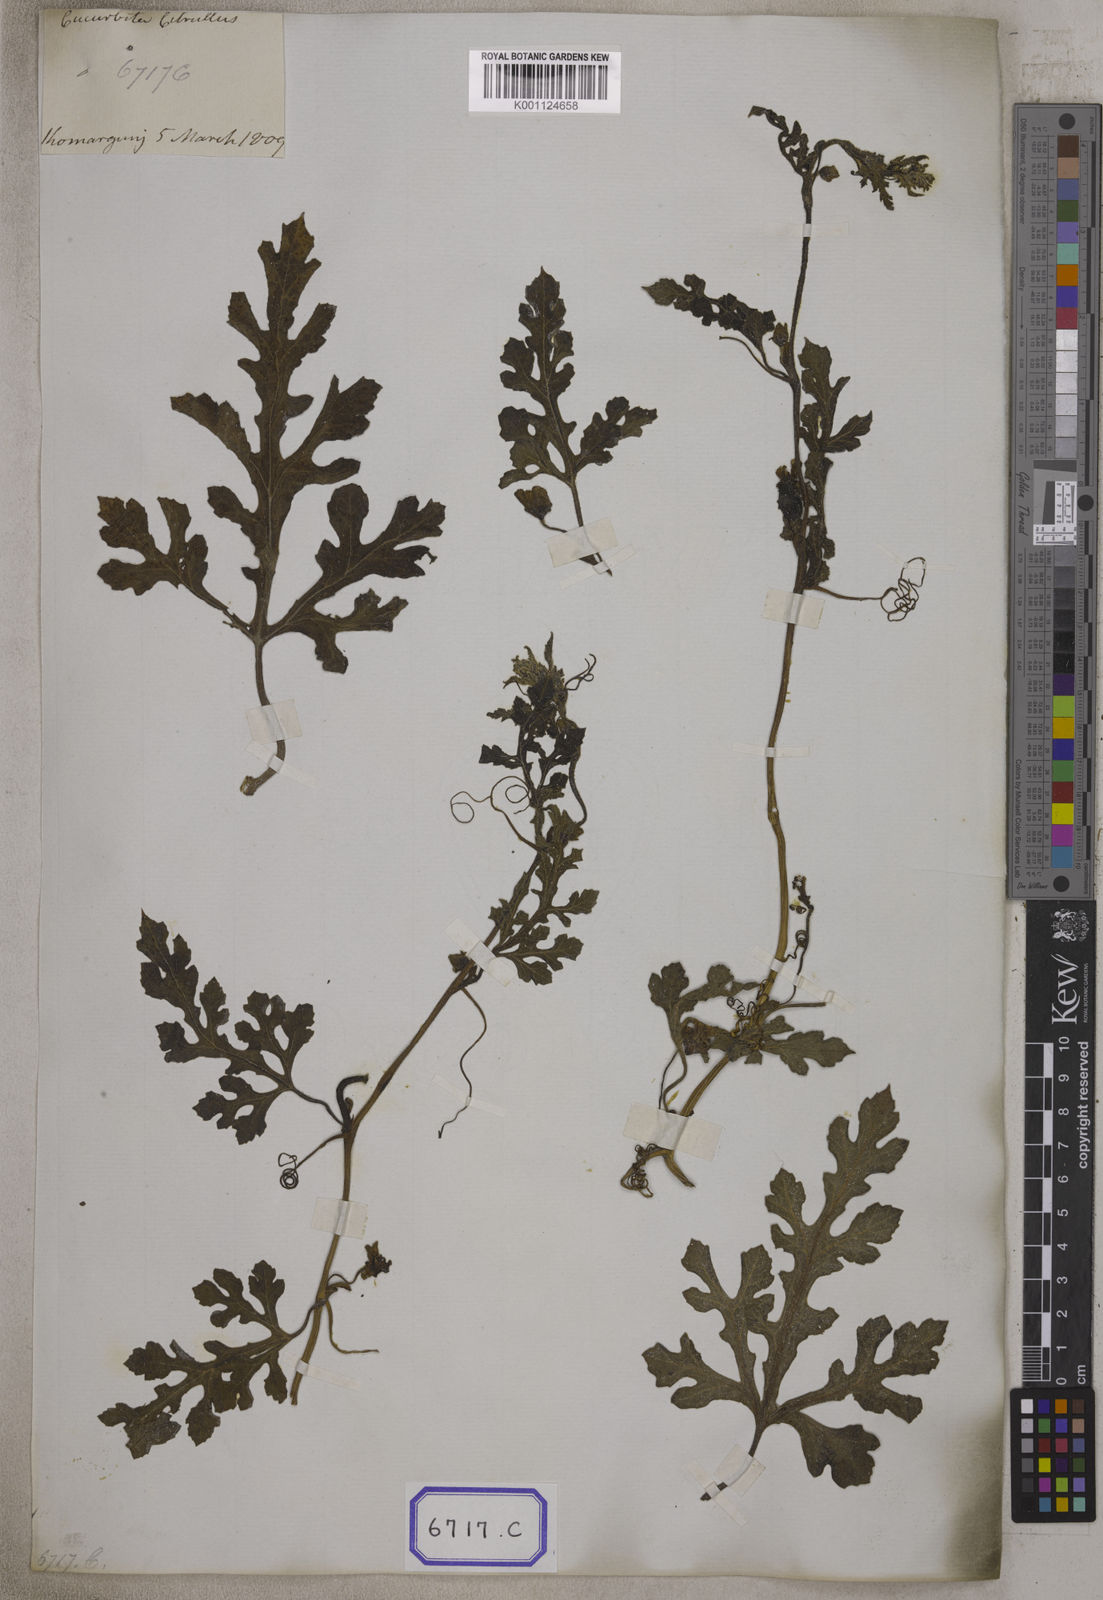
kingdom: Plantae
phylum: Tracheophyta
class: Magnoliopsida
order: Cucurbitales
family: Cucurbitaceae
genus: Citrullus
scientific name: Citrullus lanatus
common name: Watermelon
